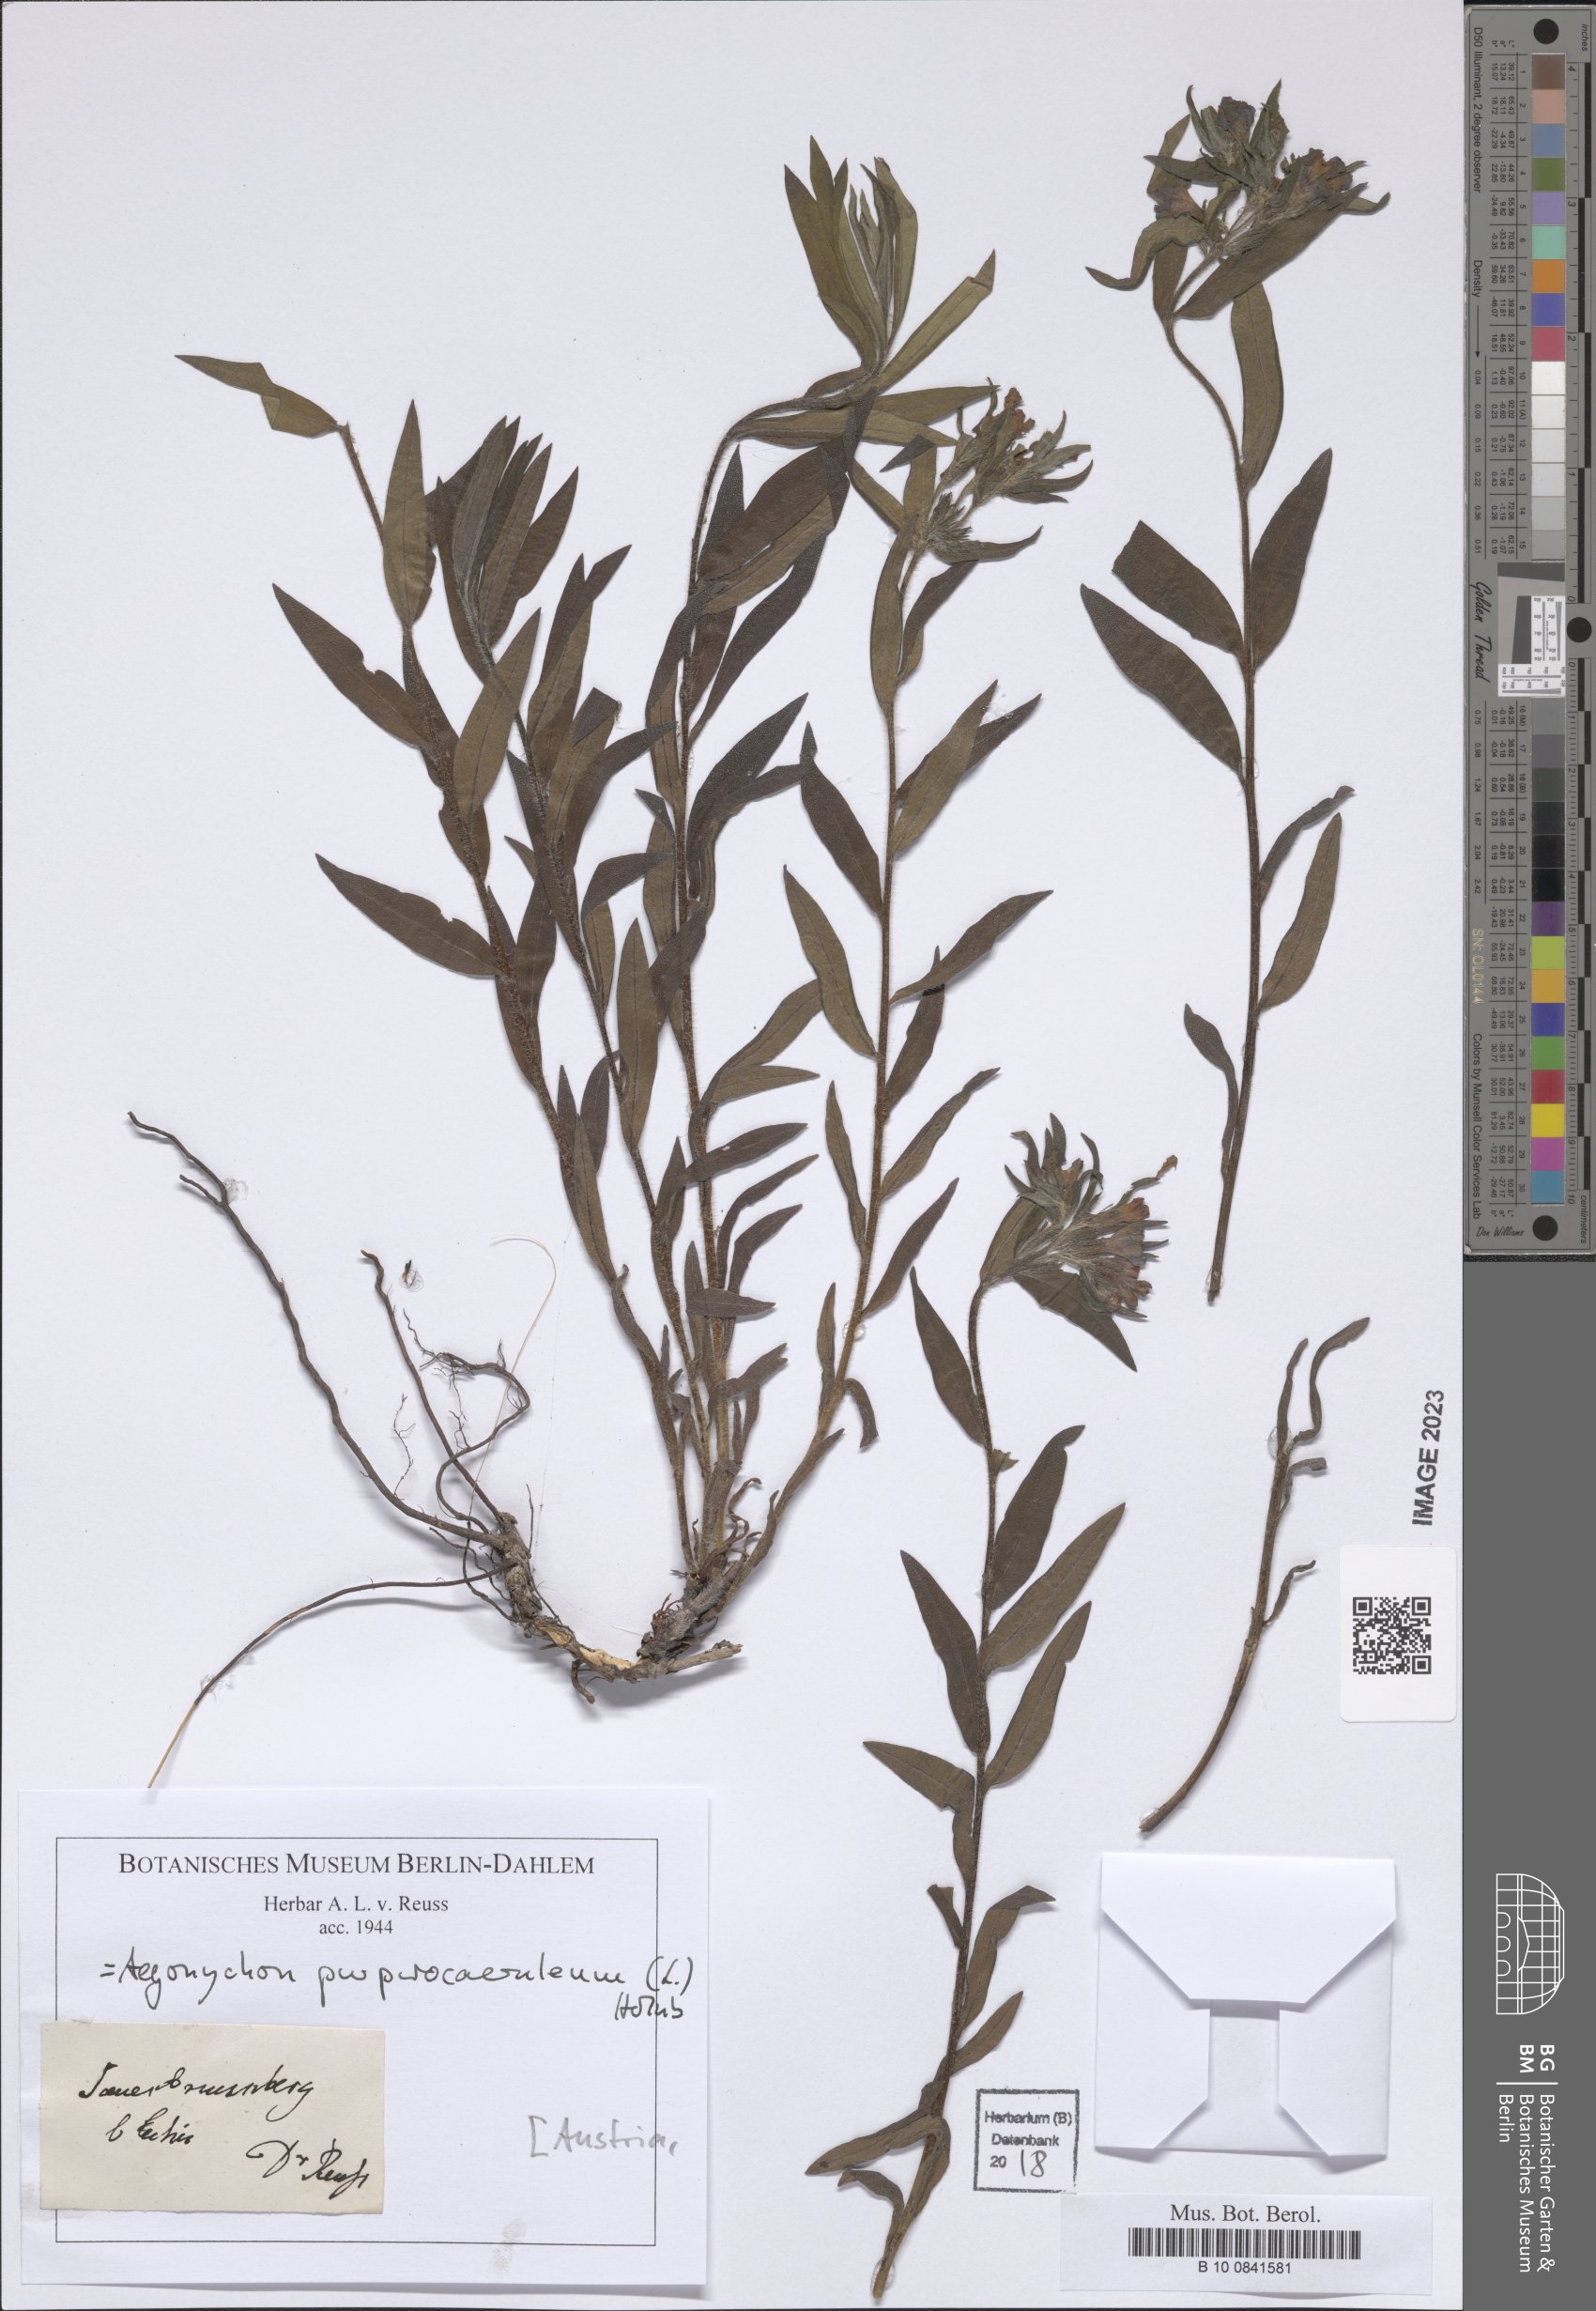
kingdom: Plantae
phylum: Tracheophyta
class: Magnoliopsida
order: Boraginales
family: Boraginaceae
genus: Aegonychon
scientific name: Aegonychon purpurocaeruleum
